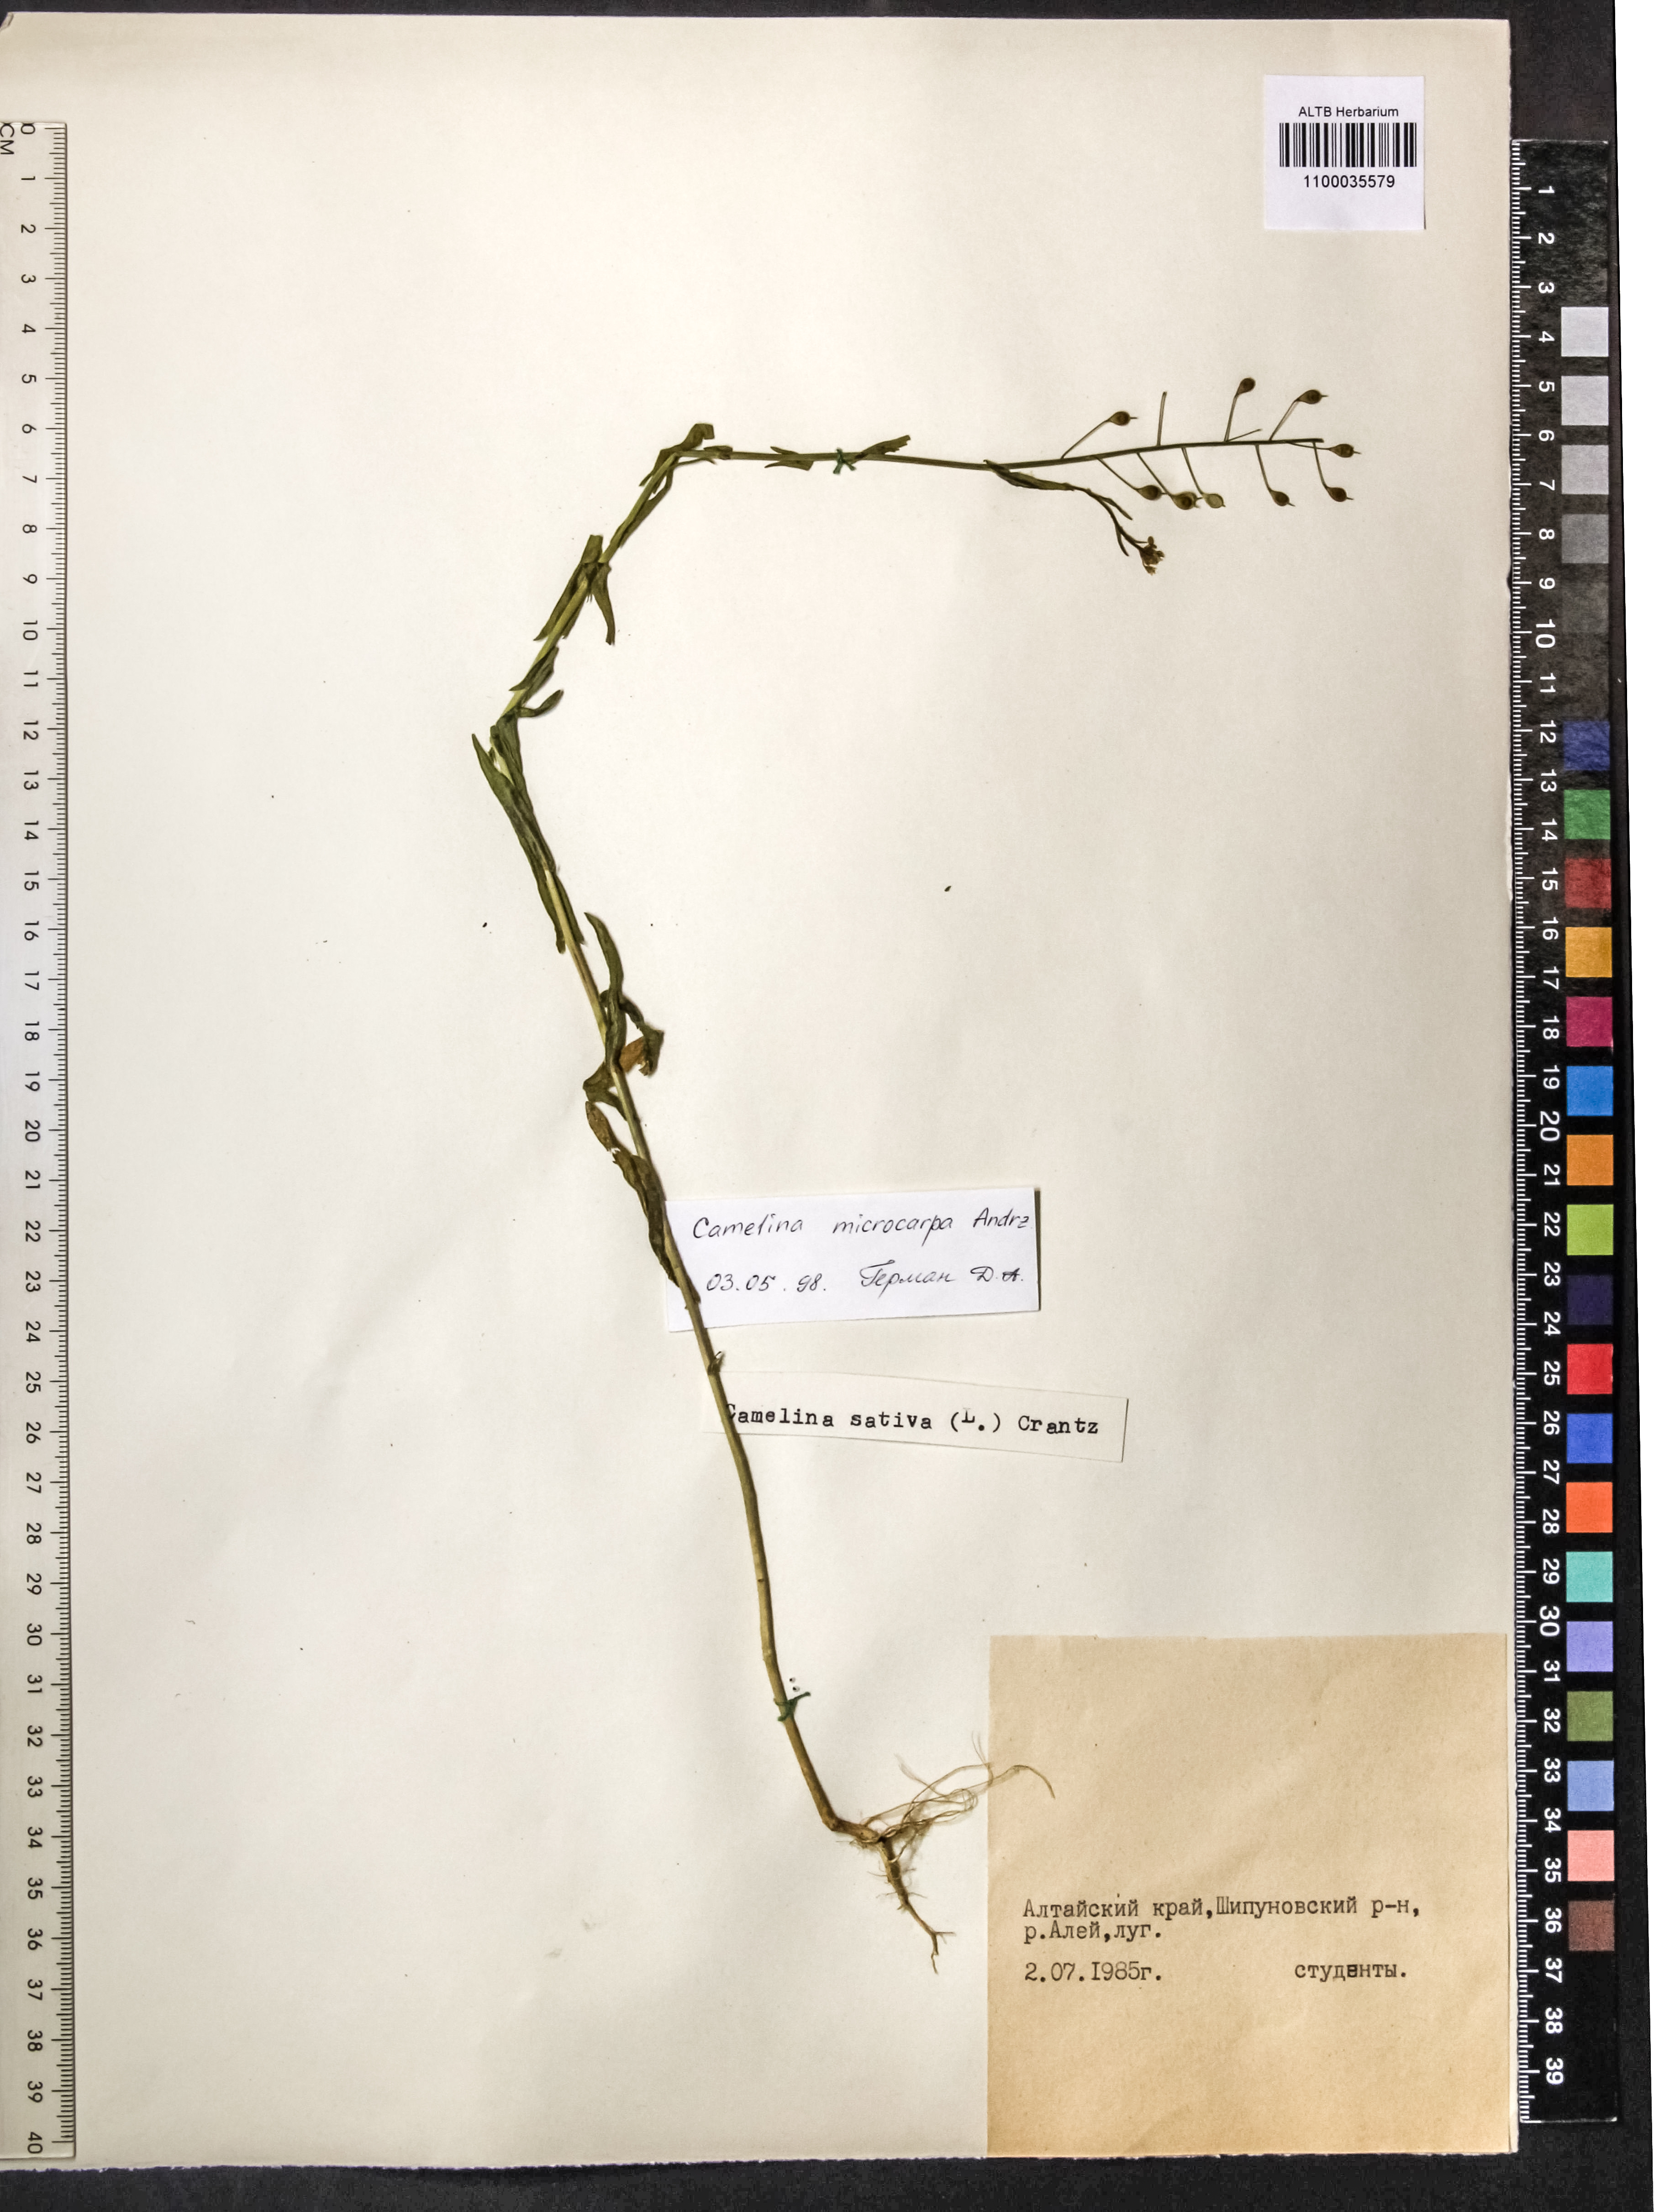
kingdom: Plantae
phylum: Tracheophyta
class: Magnoliopsida
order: Brassicales
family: Brassicaceae
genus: Camelina
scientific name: Camelina microcarpa
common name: Lesser gold-of-pleasure
